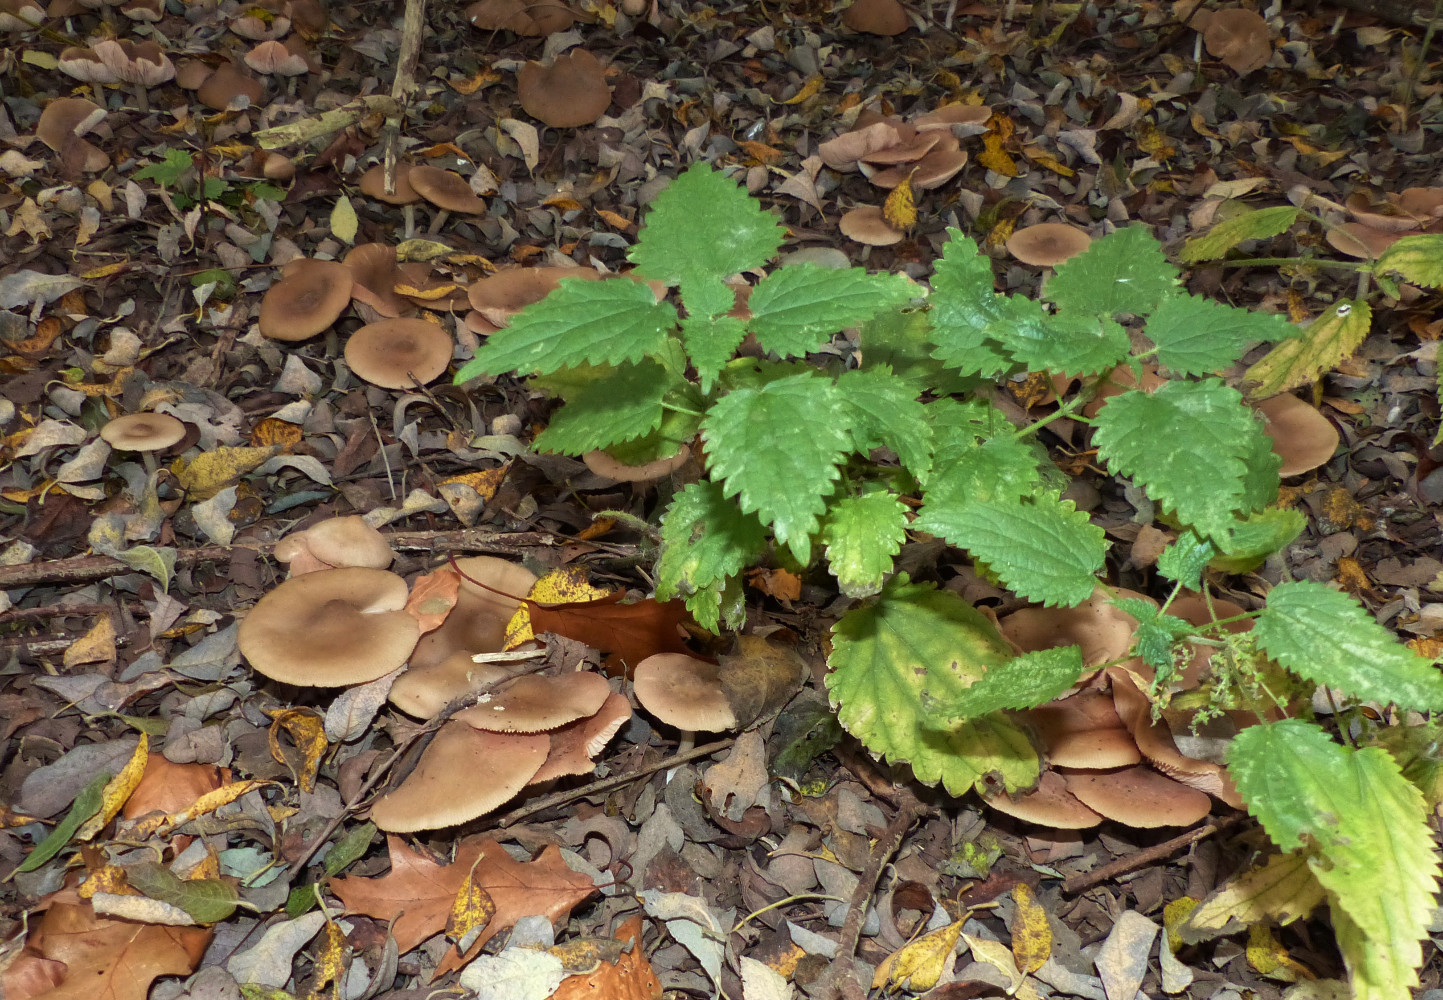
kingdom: Fungi
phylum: Basidiomycota
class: Agaricomycetes
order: Agaricales
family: Entolomataceae
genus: Entoloma
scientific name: Entoloma
